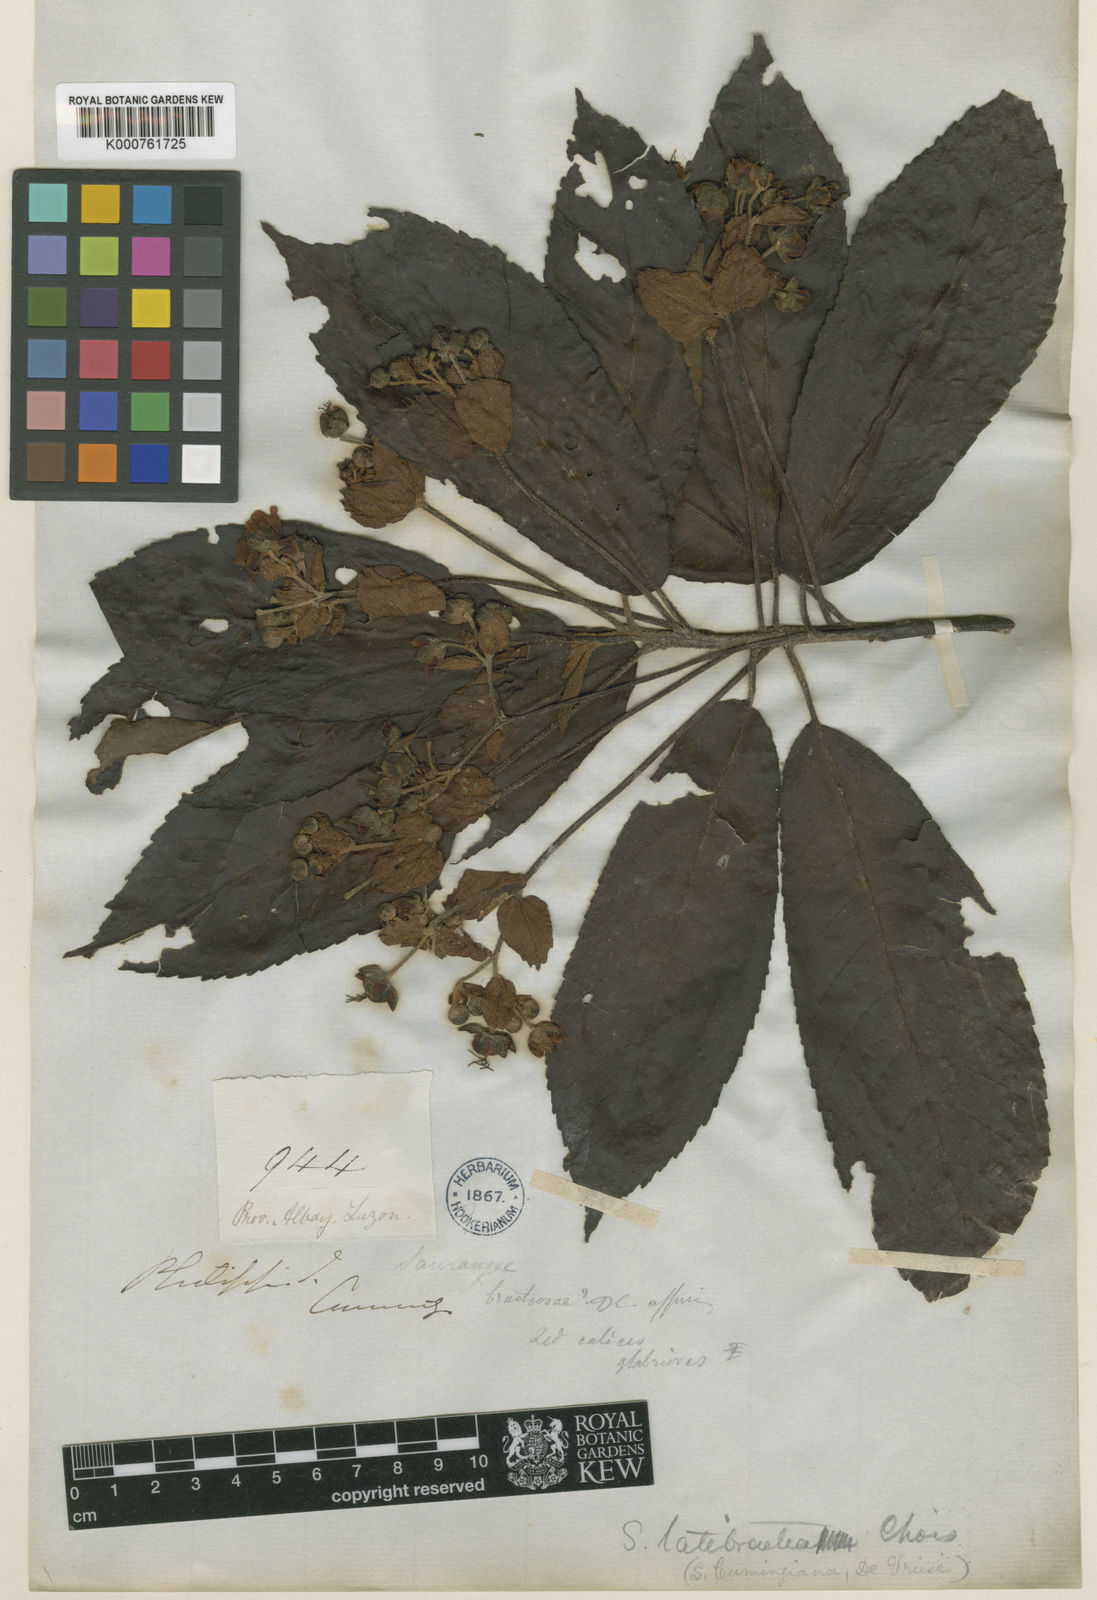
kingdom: Plantae
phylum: Tracheophyta
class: Magnoliopsida
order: Ericales
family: Actinidiaceae
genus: Saurauia
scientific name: Saurauia latibractea
